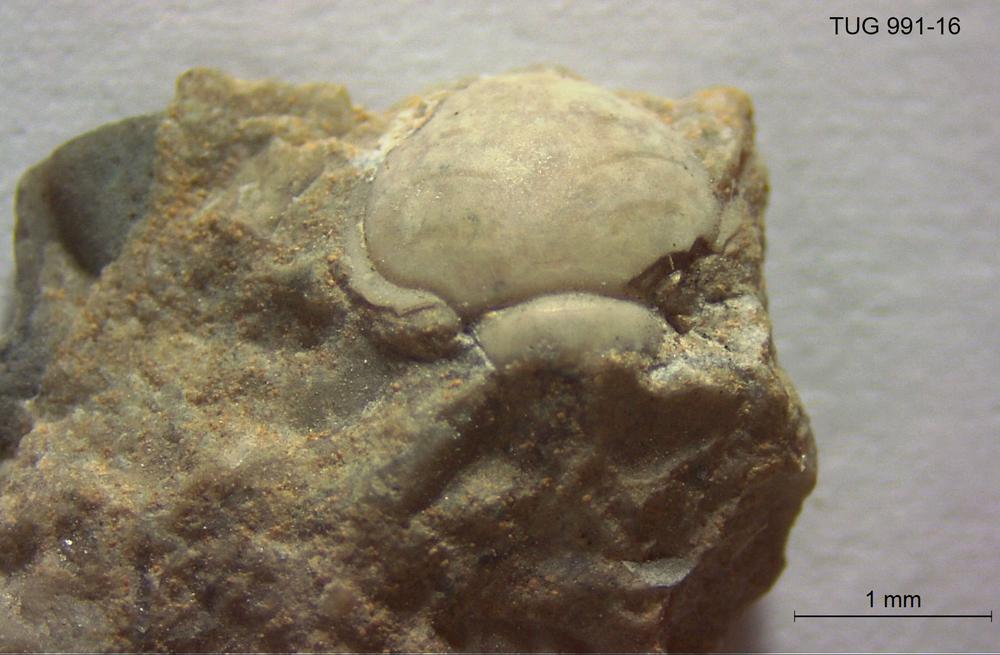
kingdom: Animalia
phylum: Arthropoda
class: Trilobita
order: Asaphida
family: Remopleurididae
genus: Remopleurides
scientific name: Remopleurides
